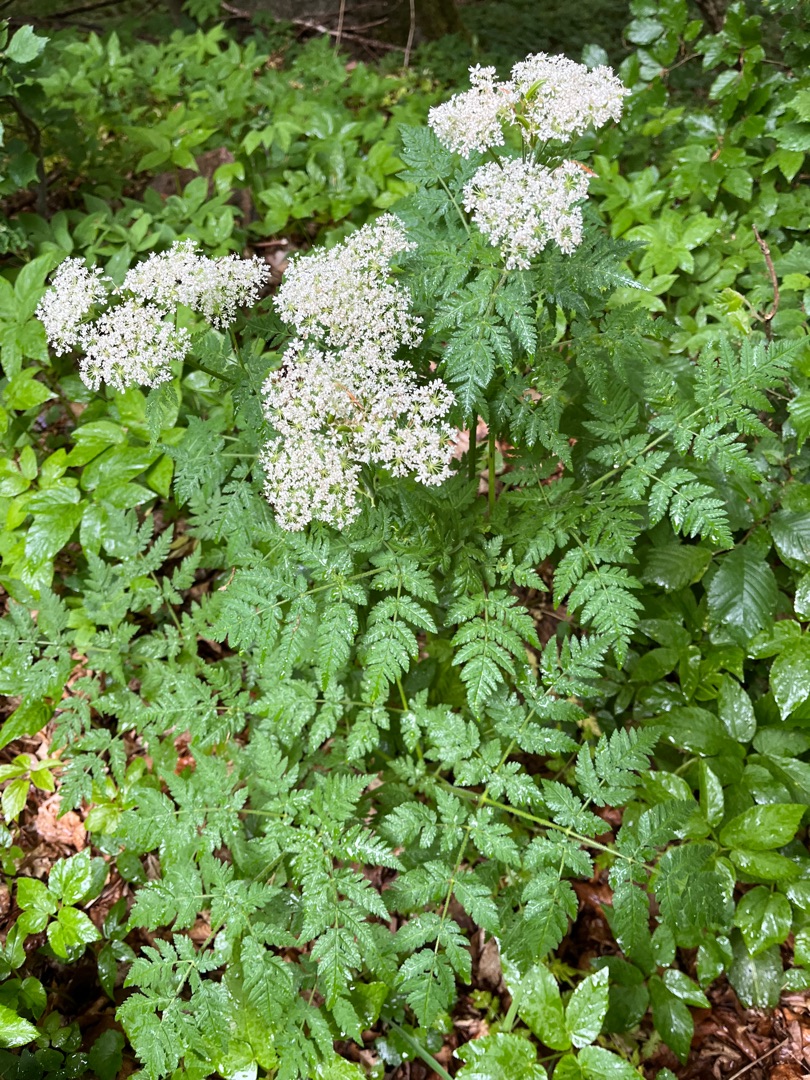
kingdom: Plantae
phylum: Tracheophyta
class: Magnoliopsida
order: Apiales
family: Apiaceae
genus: Myrrhis
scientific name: Myrrhis odorata
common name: Sødskærm
